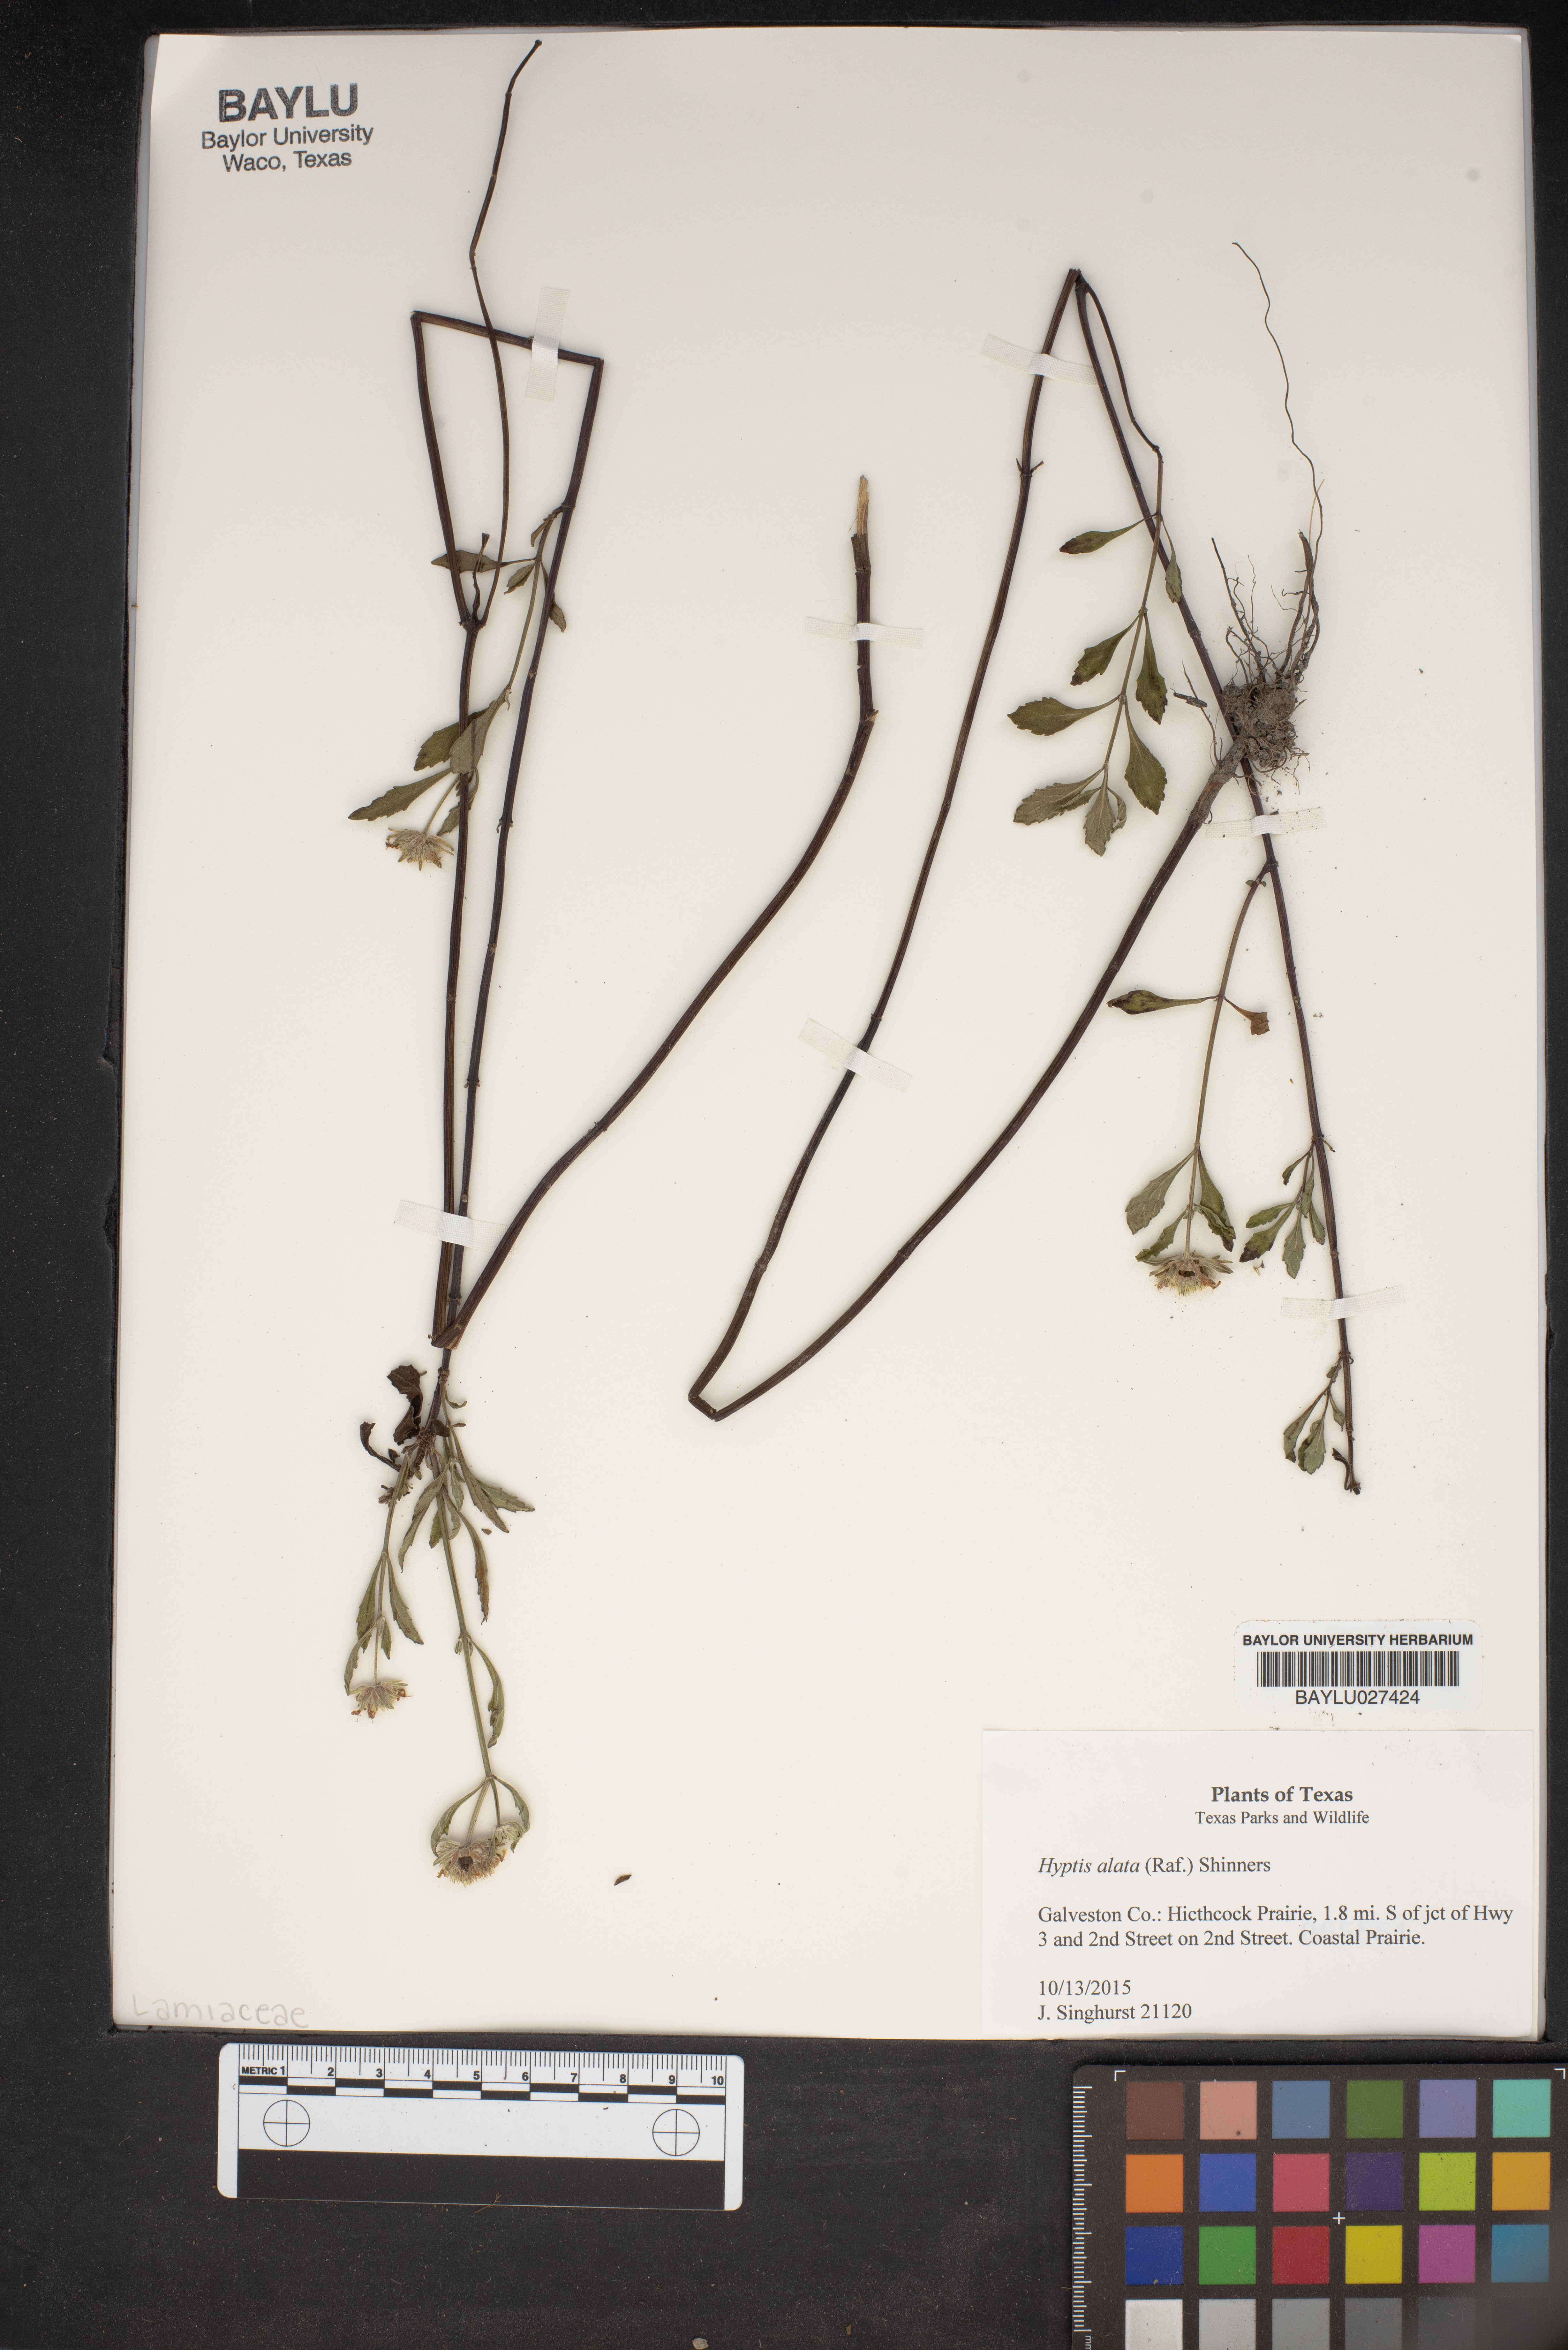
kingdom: Plantae
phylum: Tracheophyta
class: Magnoliopsida
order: Lamiales
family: Lamiaceae
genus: Hyptis
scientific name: Hyptis alata
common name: Cluster bush-mint
